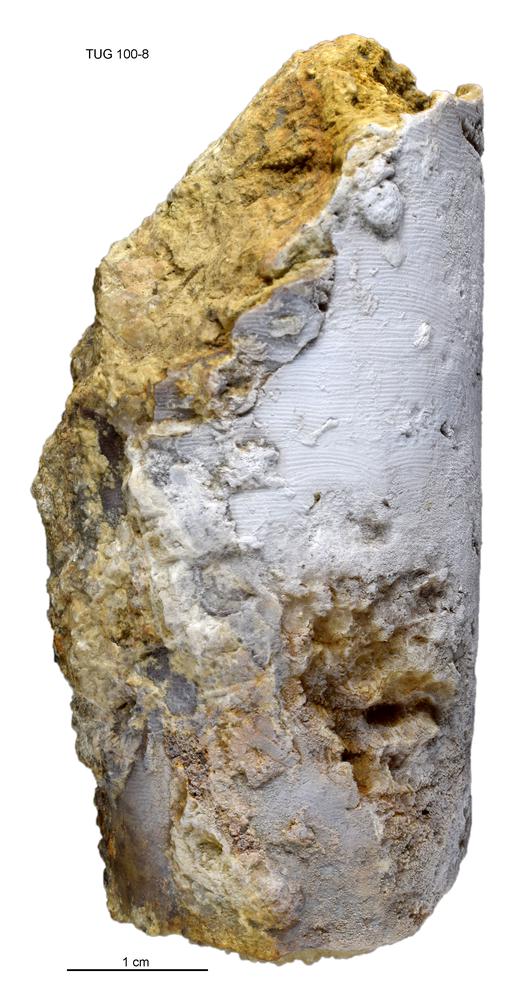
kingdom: Animalia
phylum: Mollusca
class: Cephalopoda
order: Nautilida
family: Nautilidae
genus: Orthonybyoceras
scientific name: Orthonybyoceras isakari
